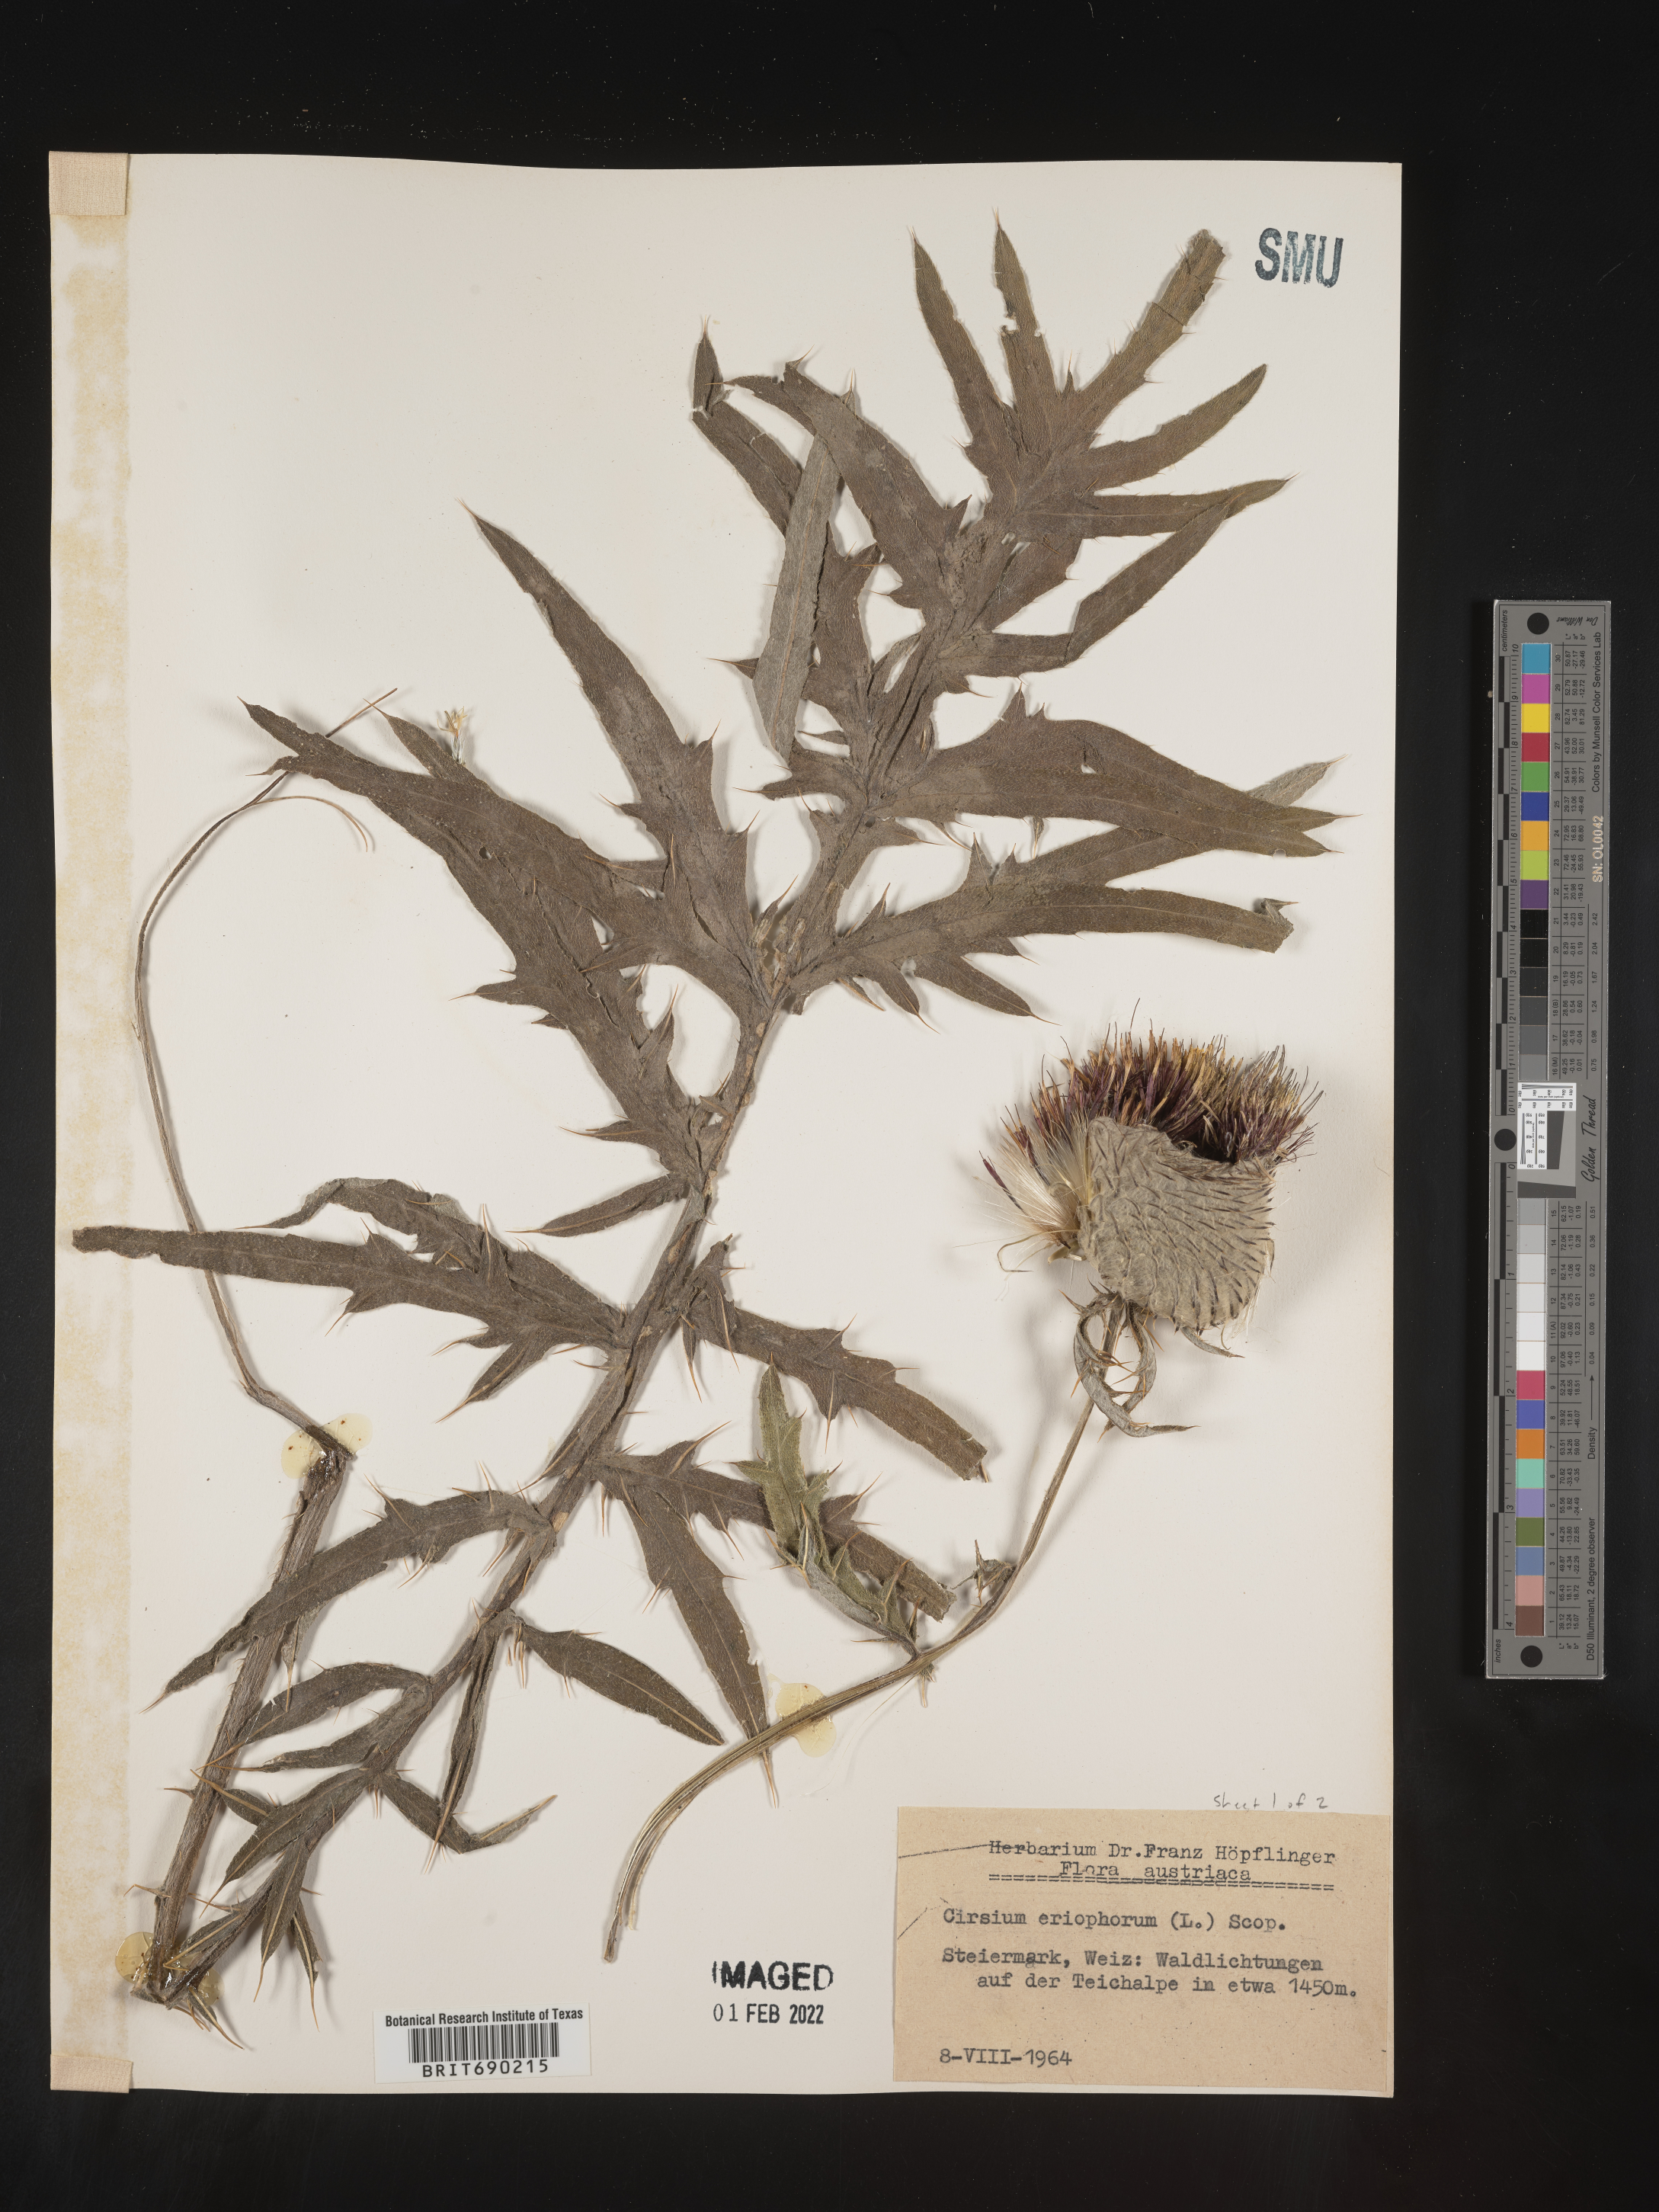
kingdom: Plantae
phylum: Tracheophyta
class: Magnoliopsida
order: Asterales
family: Asteraceae
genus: Cirsium
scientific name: Cirsium
